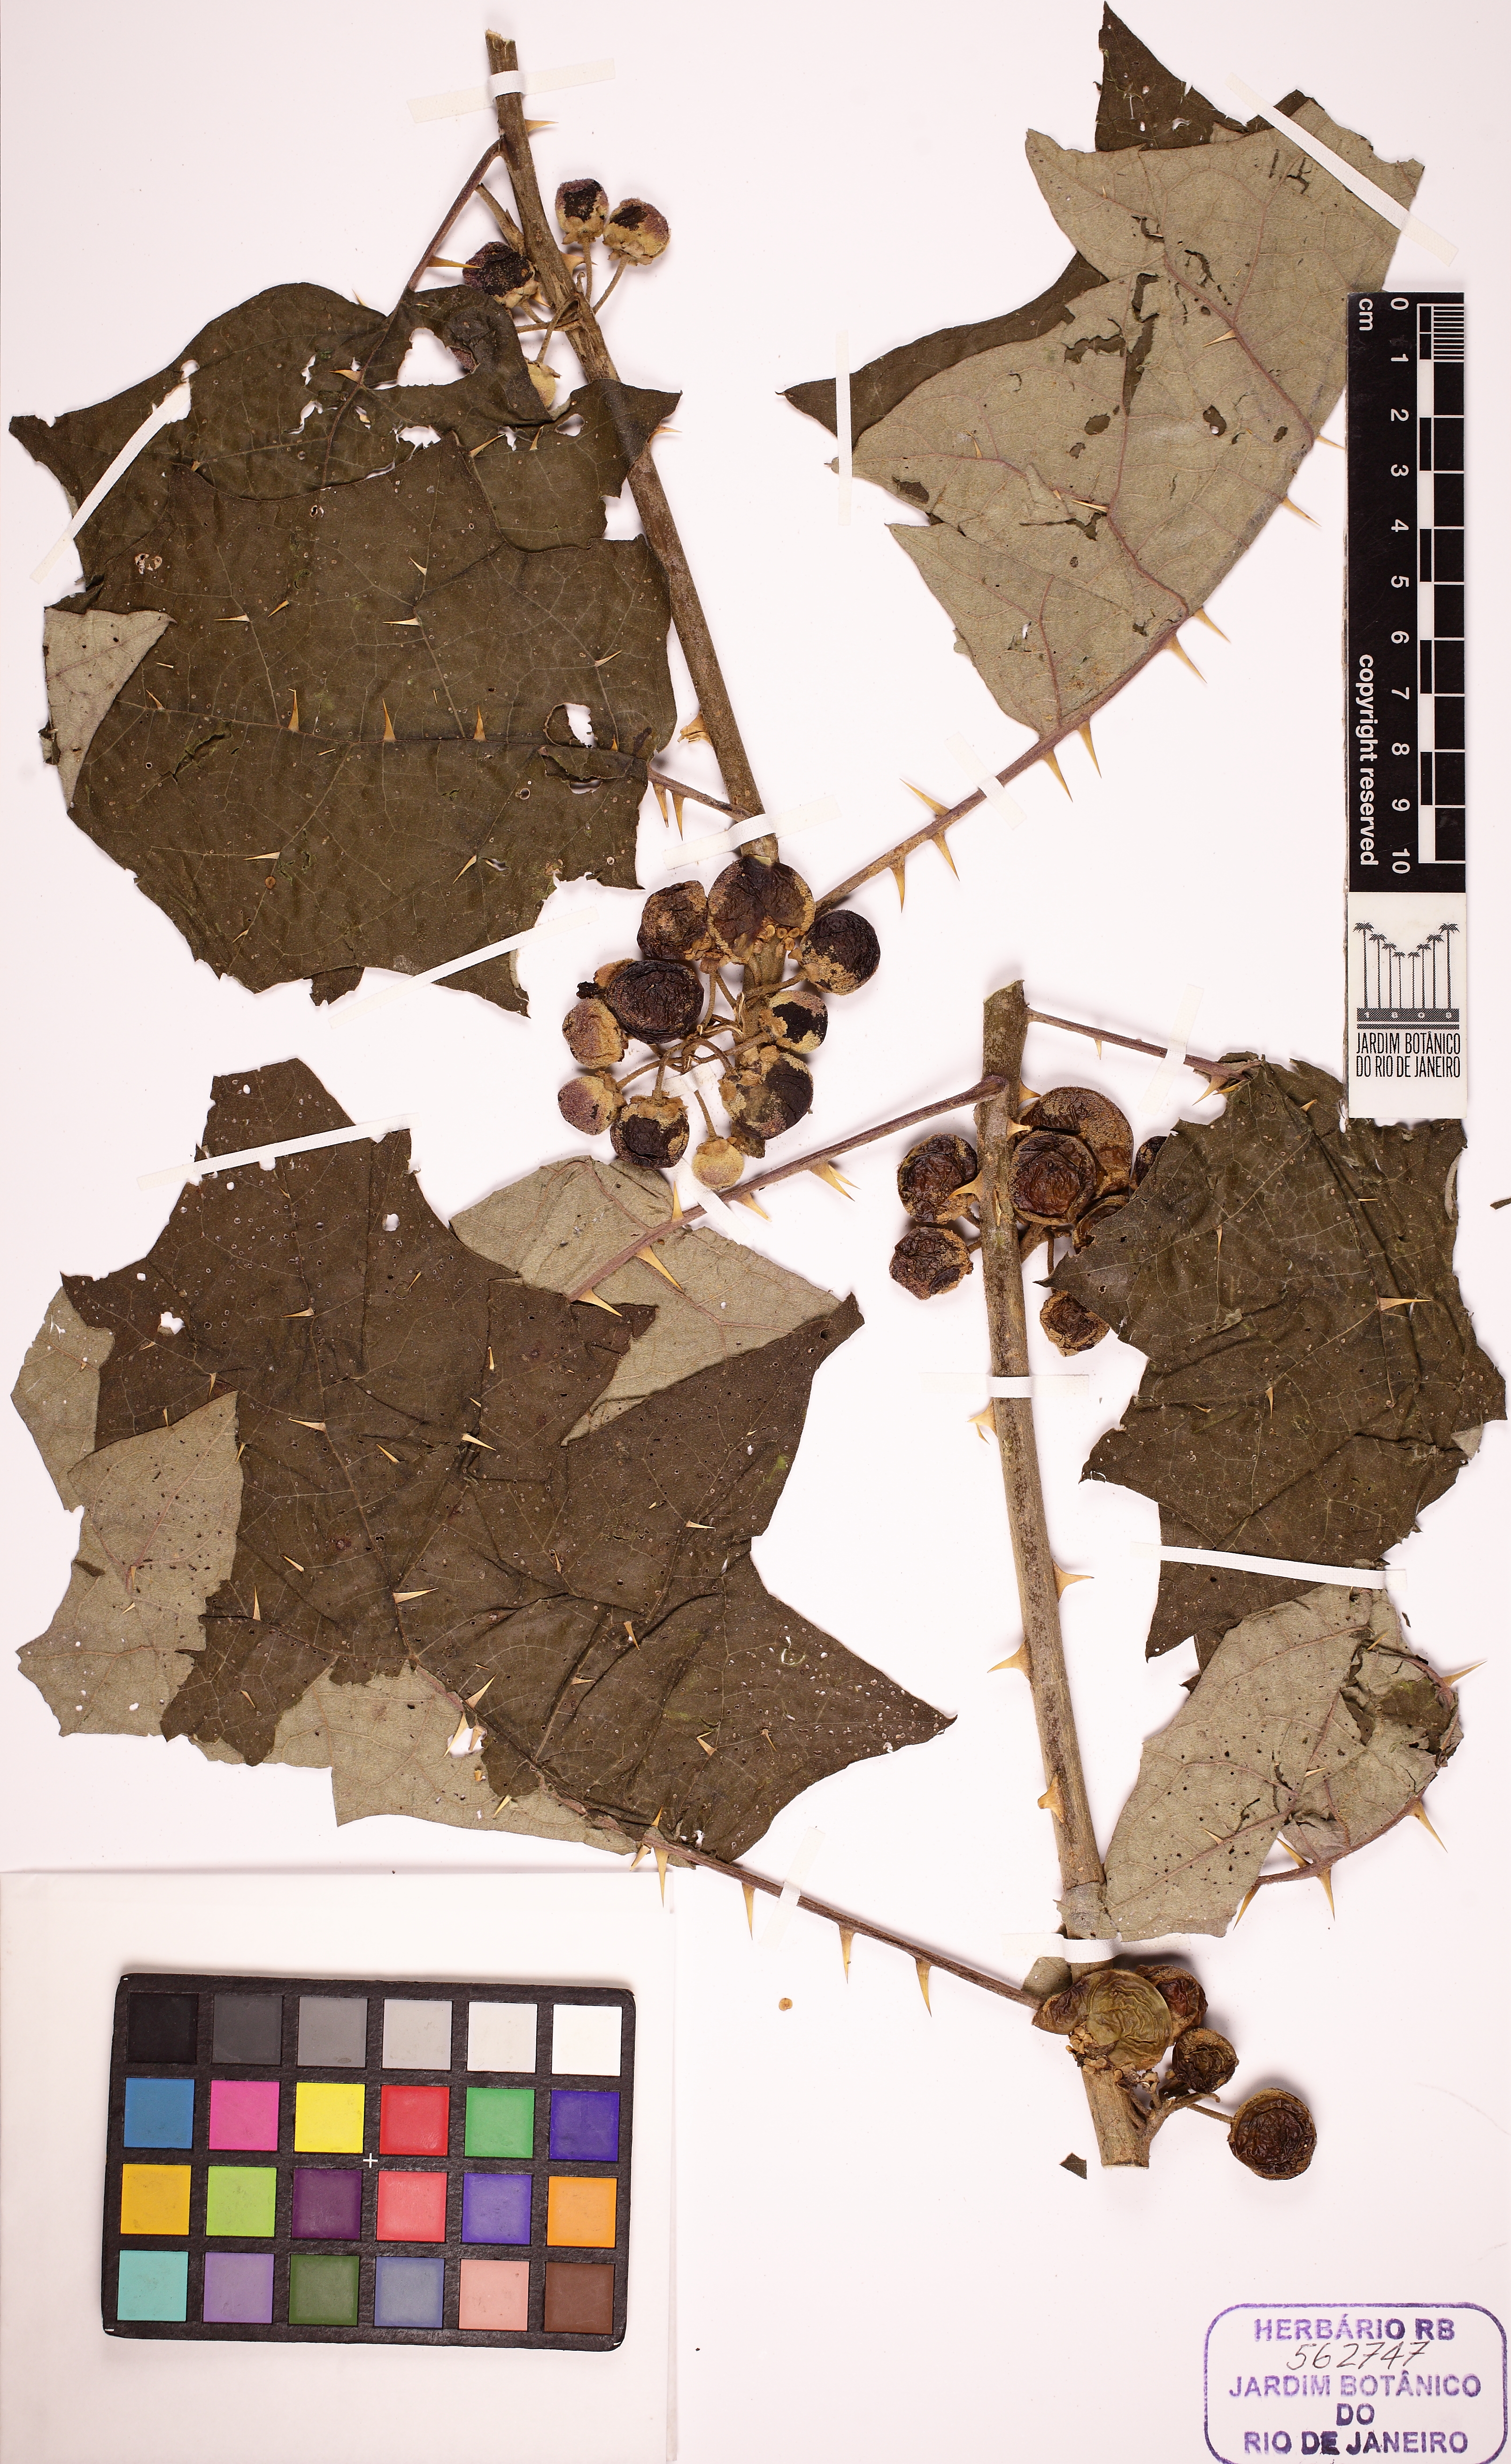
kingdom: Plantae
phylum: Tracheophyta
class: Magnoliopsida
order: Solanales
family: Solanaceae
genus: Solanum
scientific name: Solanum stramonifolium
